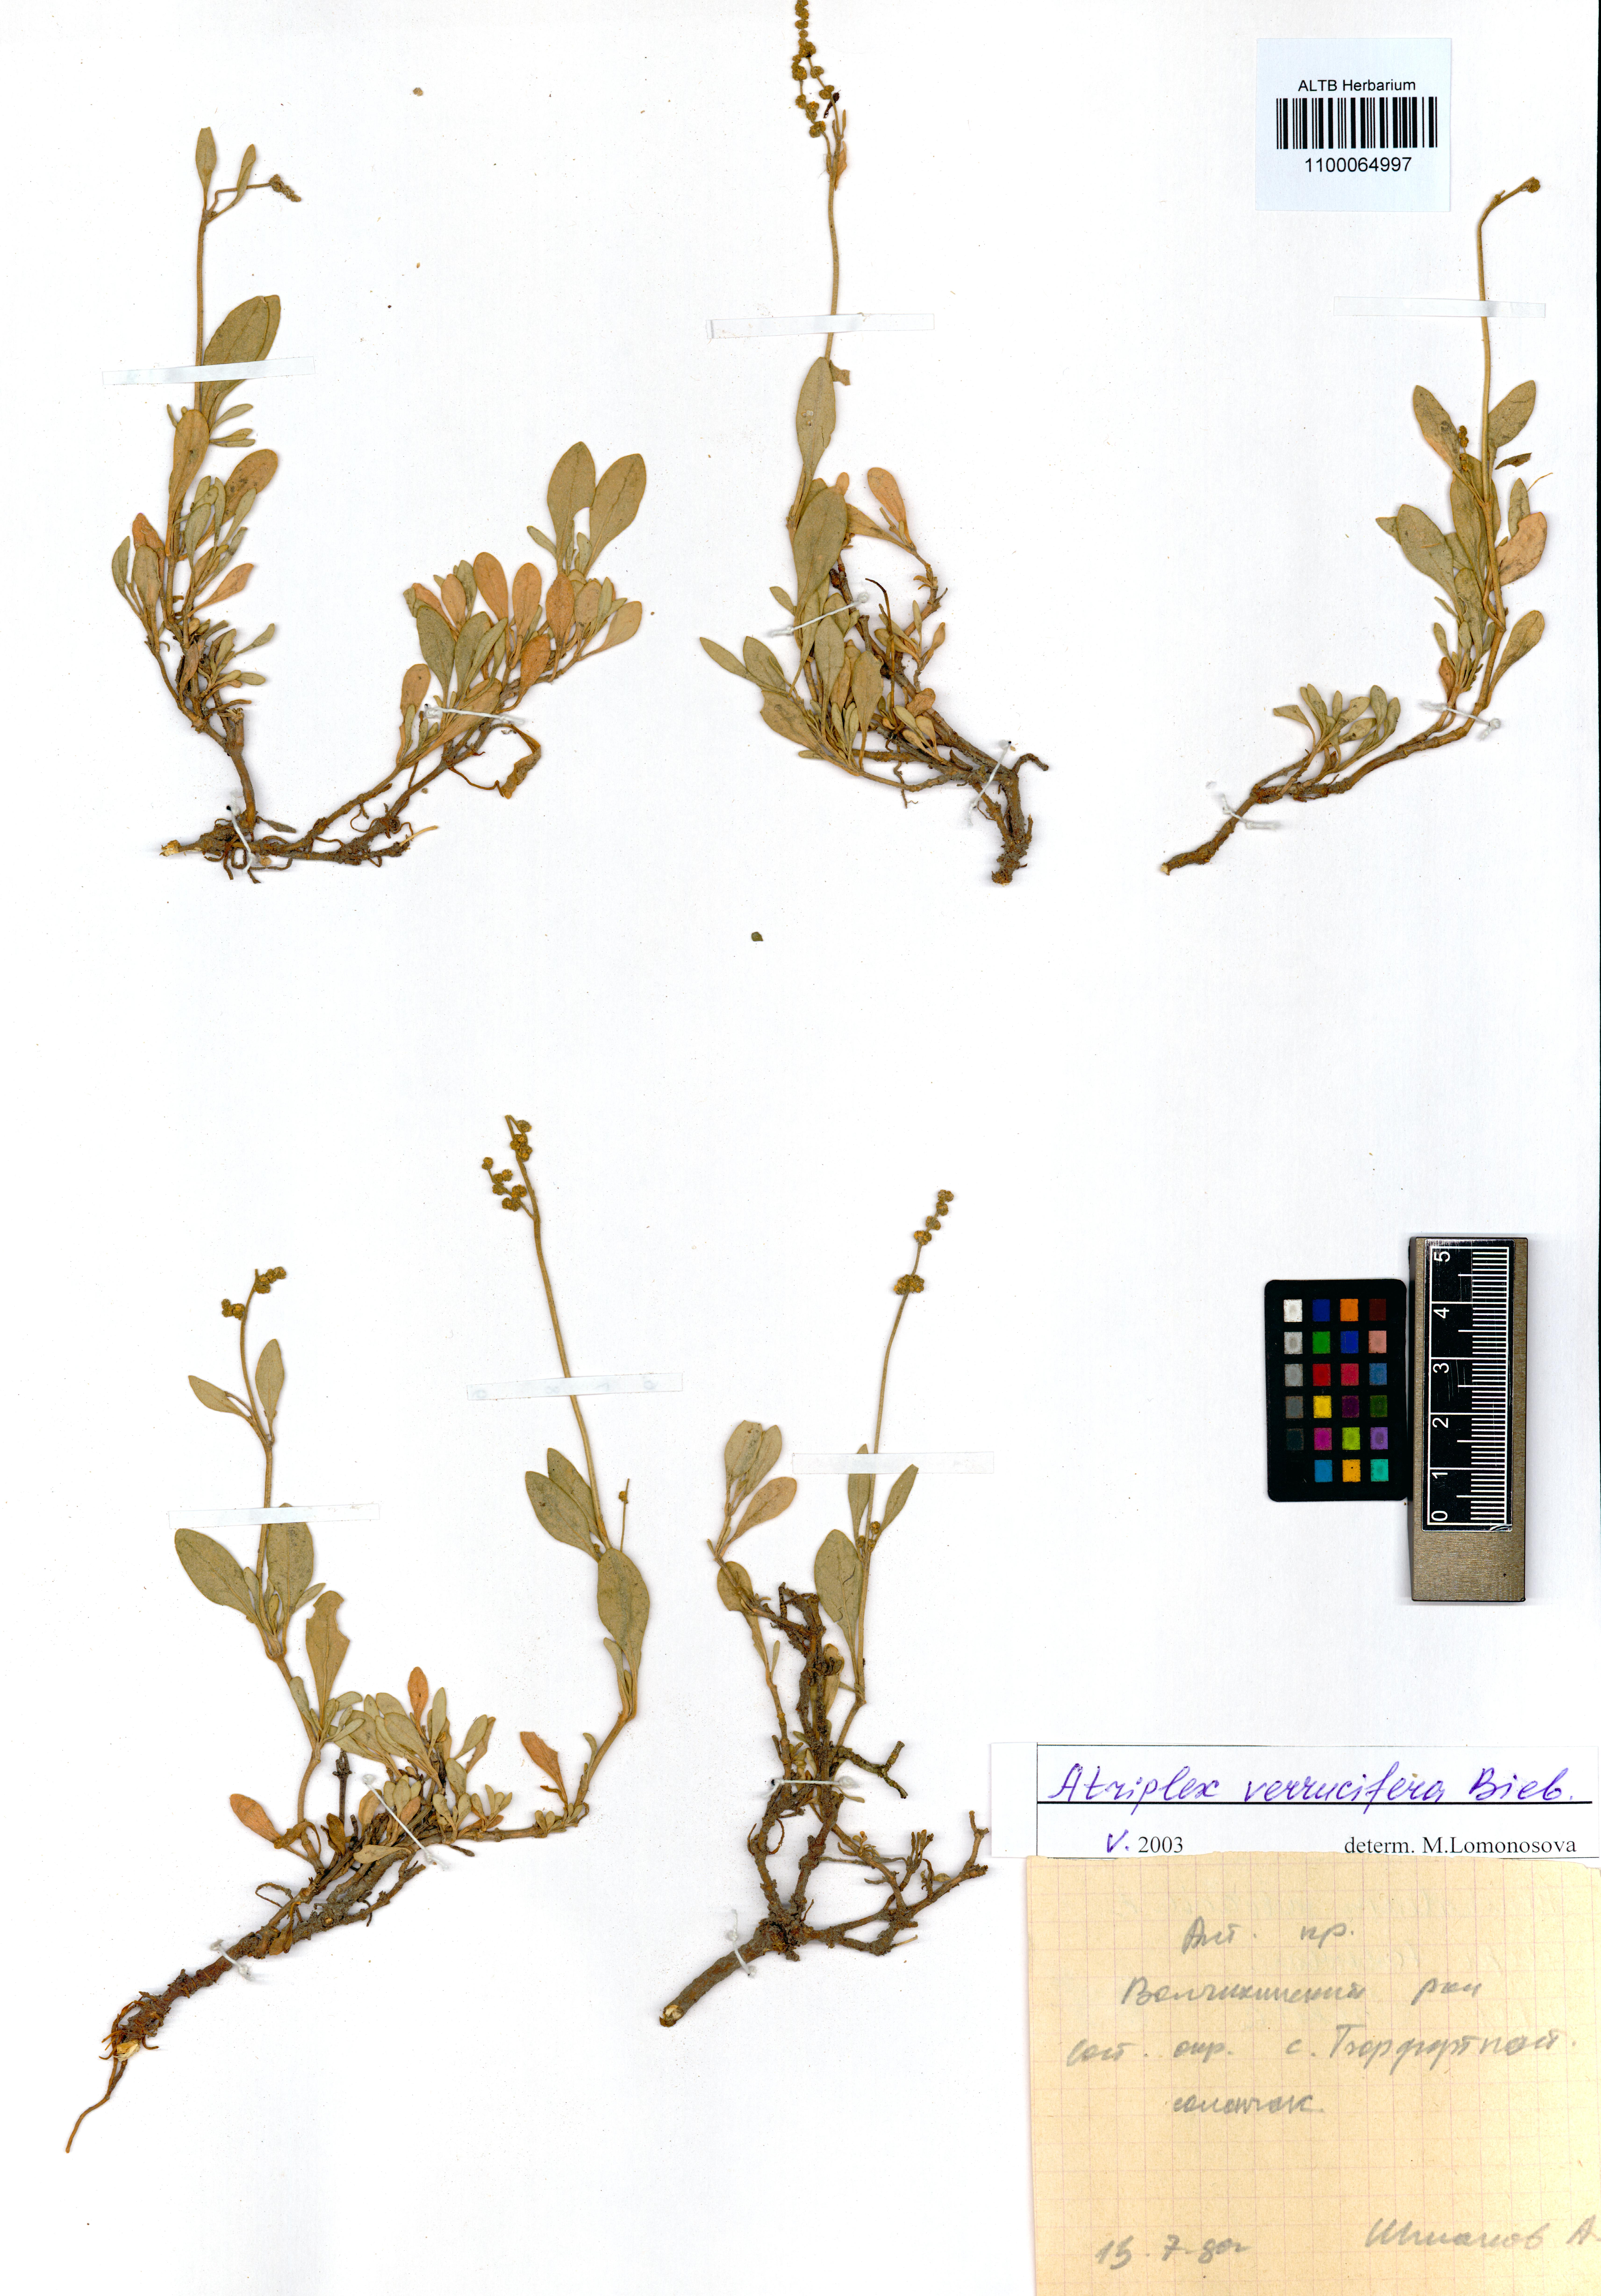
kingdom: Plantae
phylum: Tracheophyta
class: Magnoliopsida
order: Caryophyllales
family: Amaranthaceae
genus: Halimione
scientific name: Halimione verrucifera
